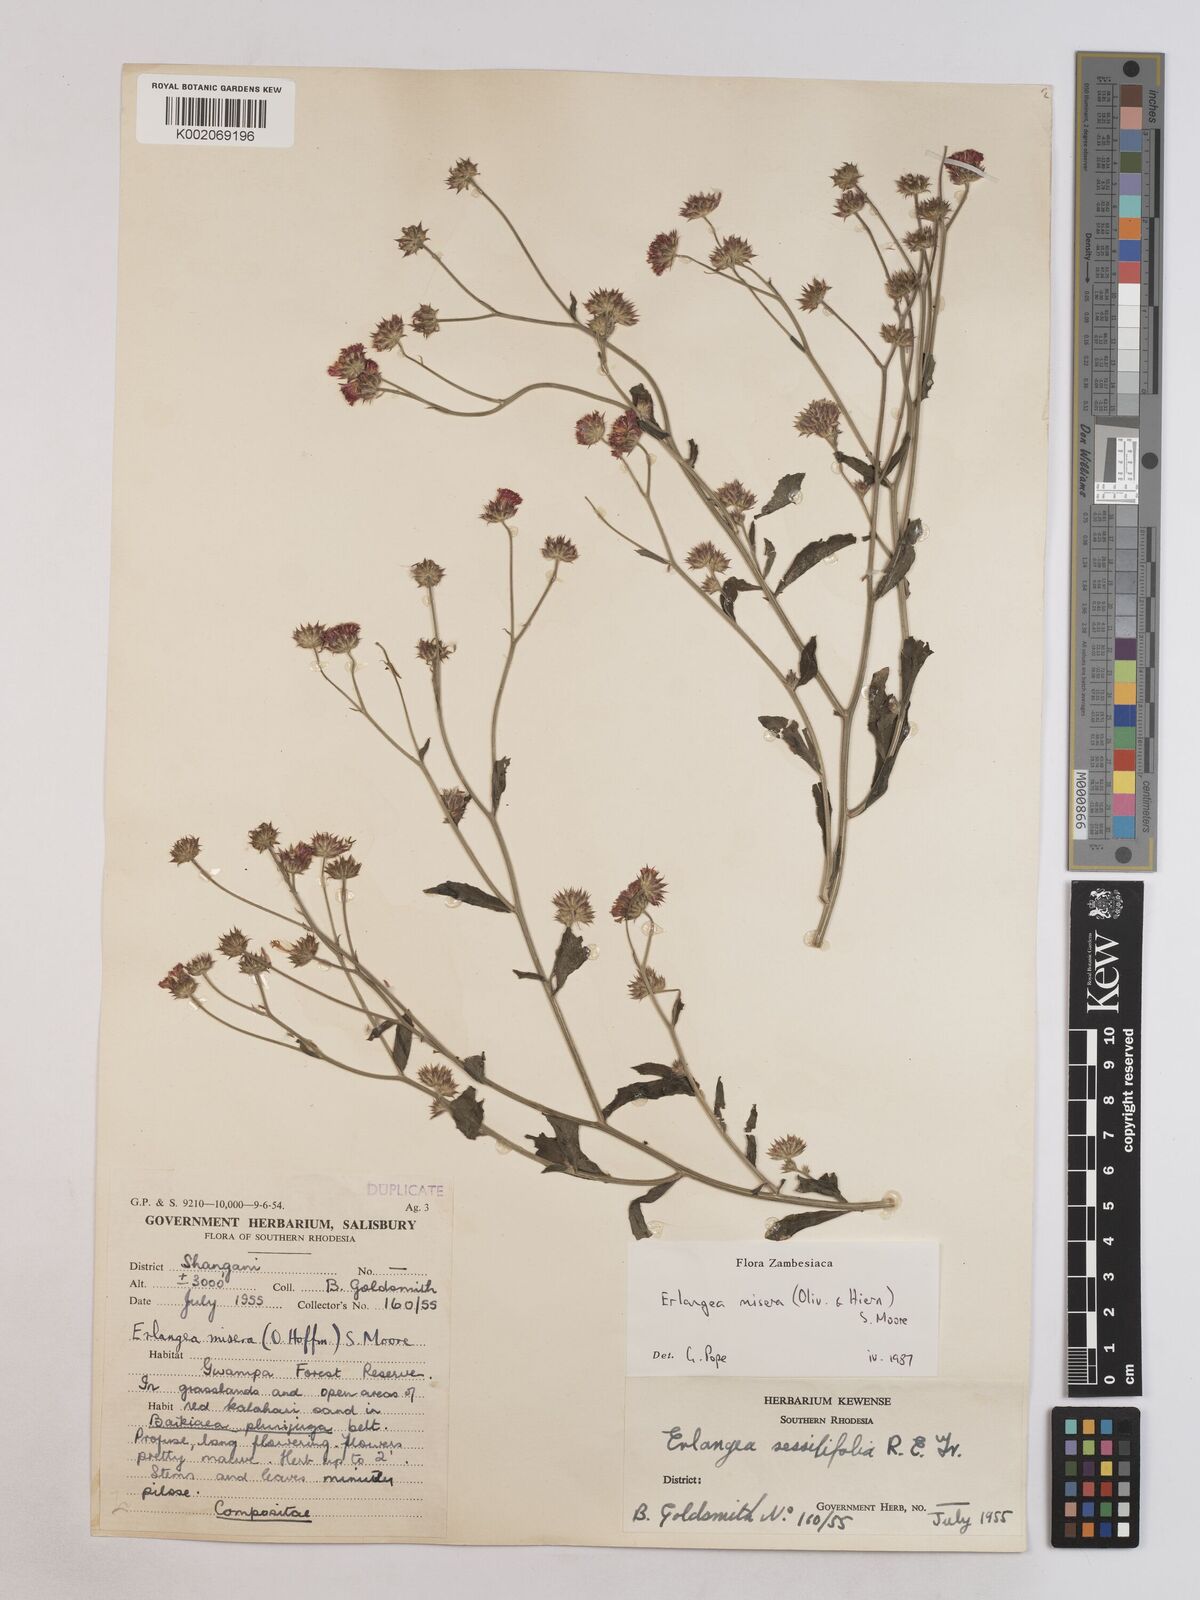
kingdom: Plantae
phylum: Tracheophyta
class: Magnoliopsida
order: Asterales
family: Asteraceae
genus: Erlangea
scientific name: Erlangea misera
